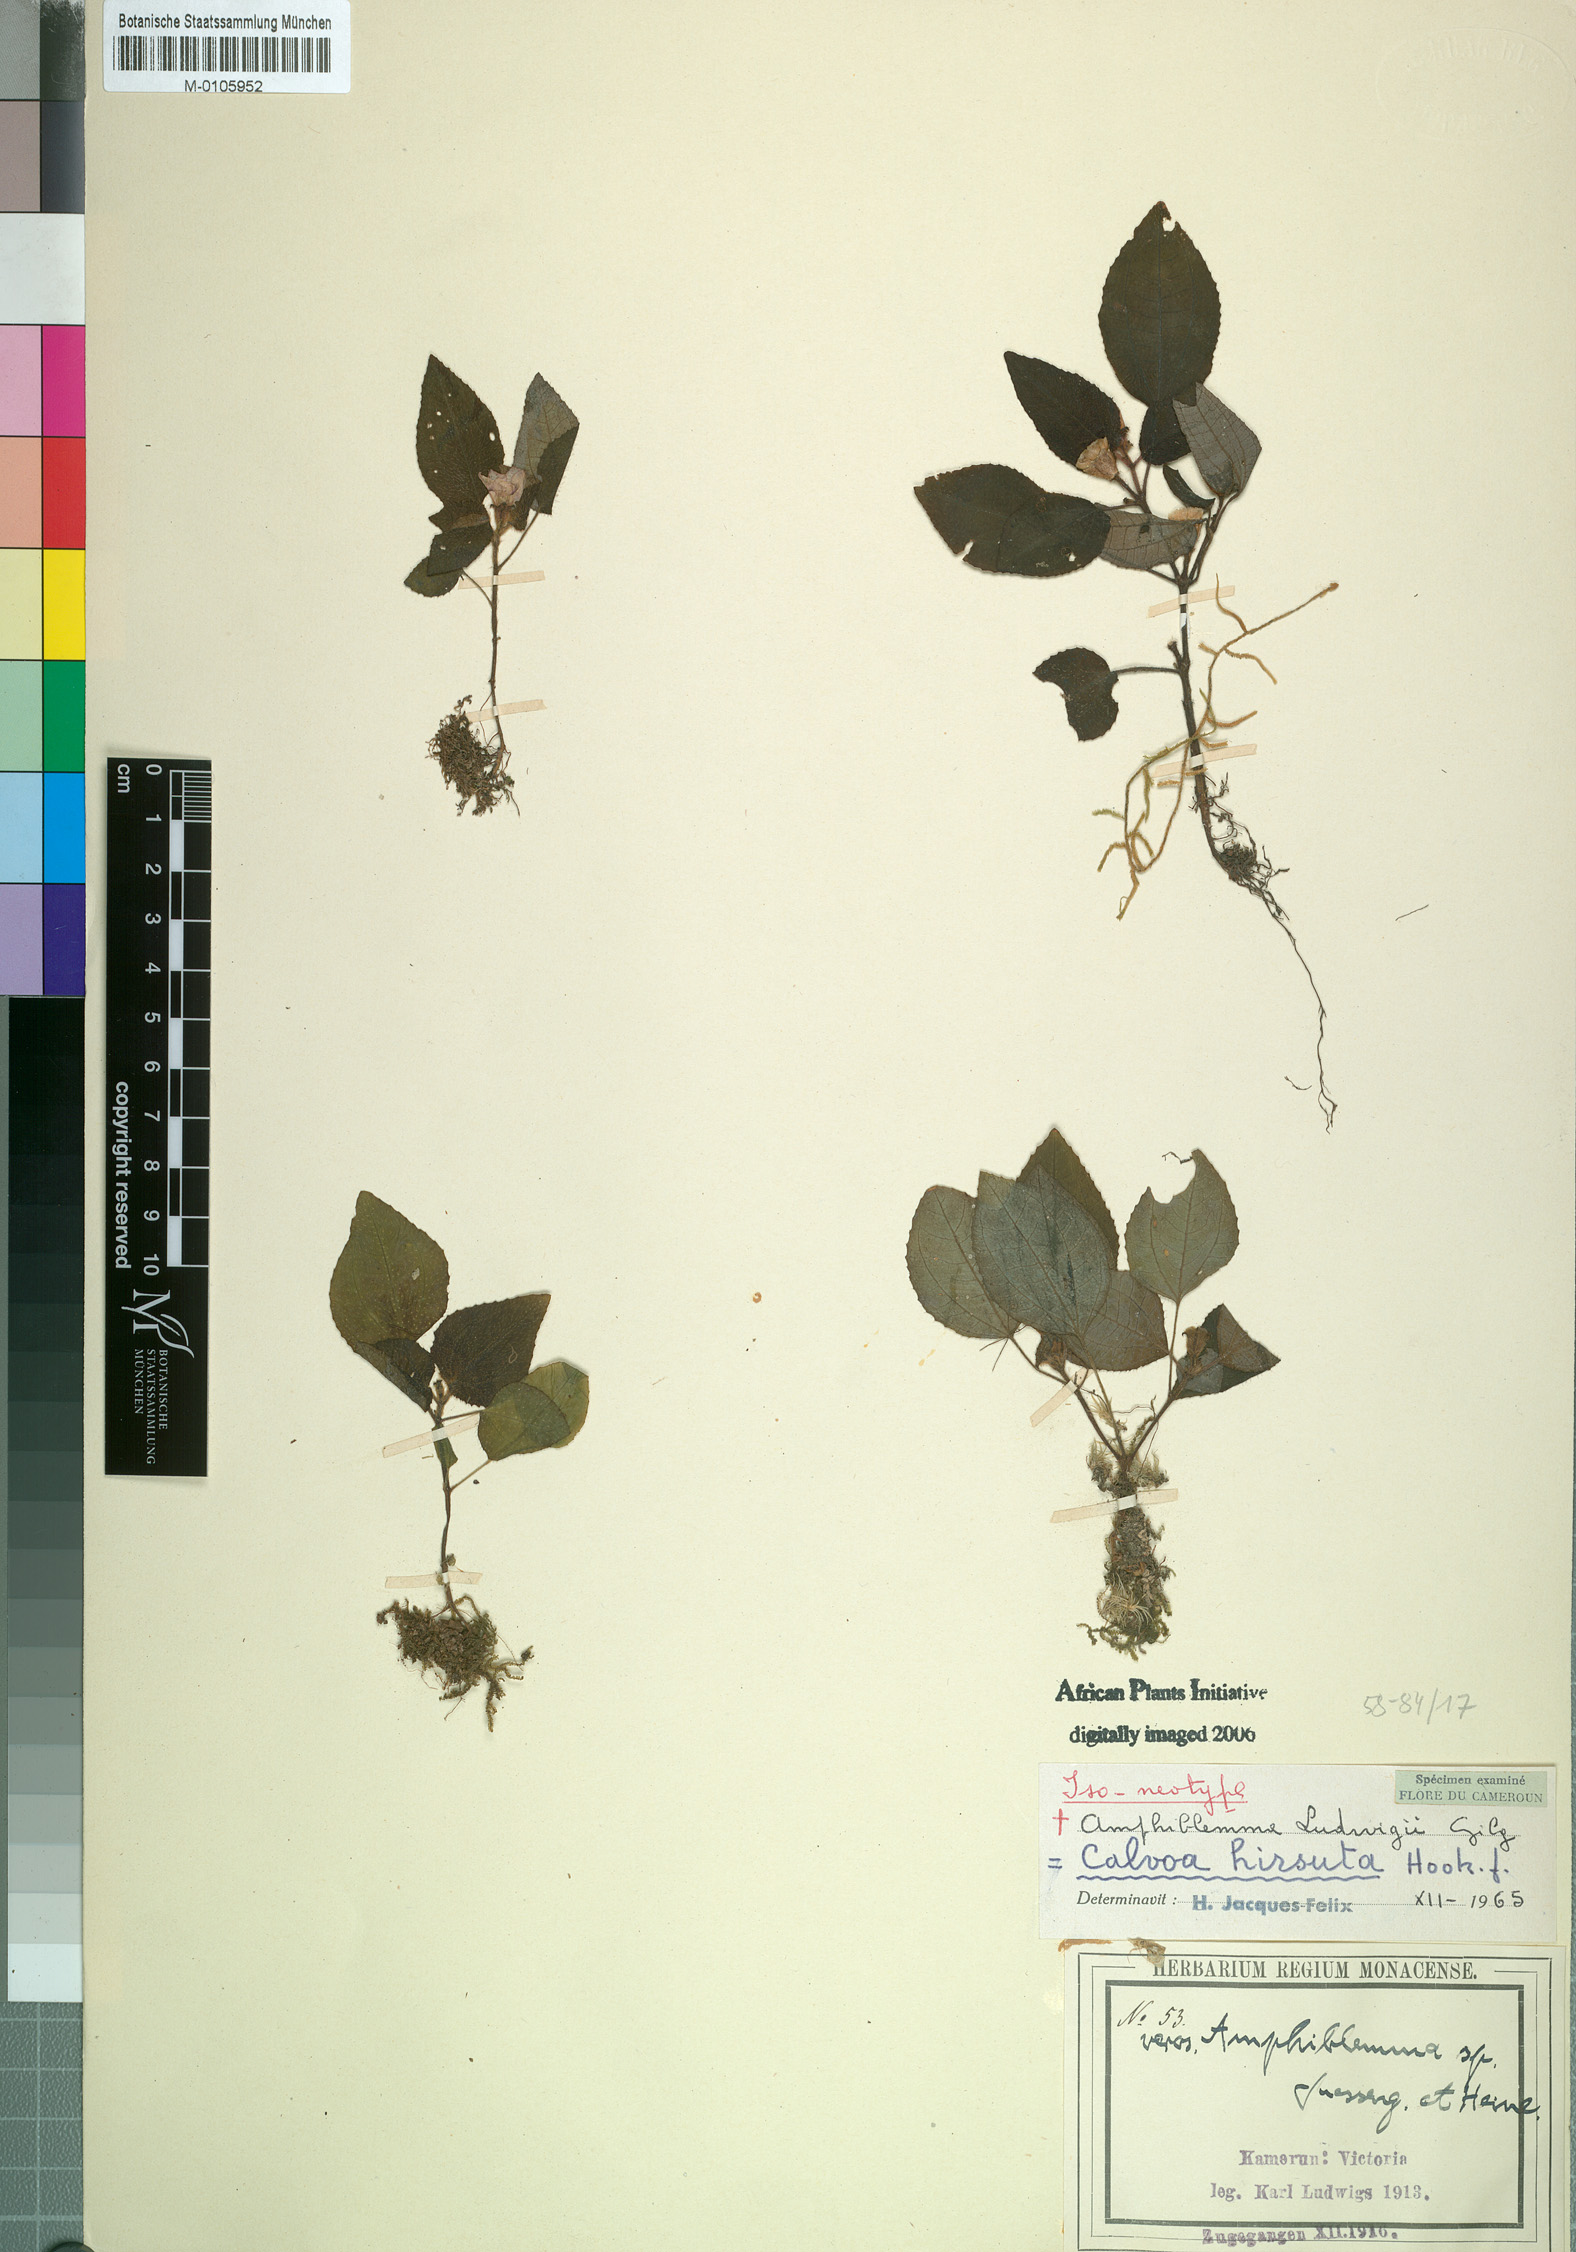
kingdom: Plantae
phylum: Tracheophyta
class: Magnoliopsida
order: Myrtales
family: Melastomataceae
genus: Calvoa
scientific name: Calvoa hirsuta
